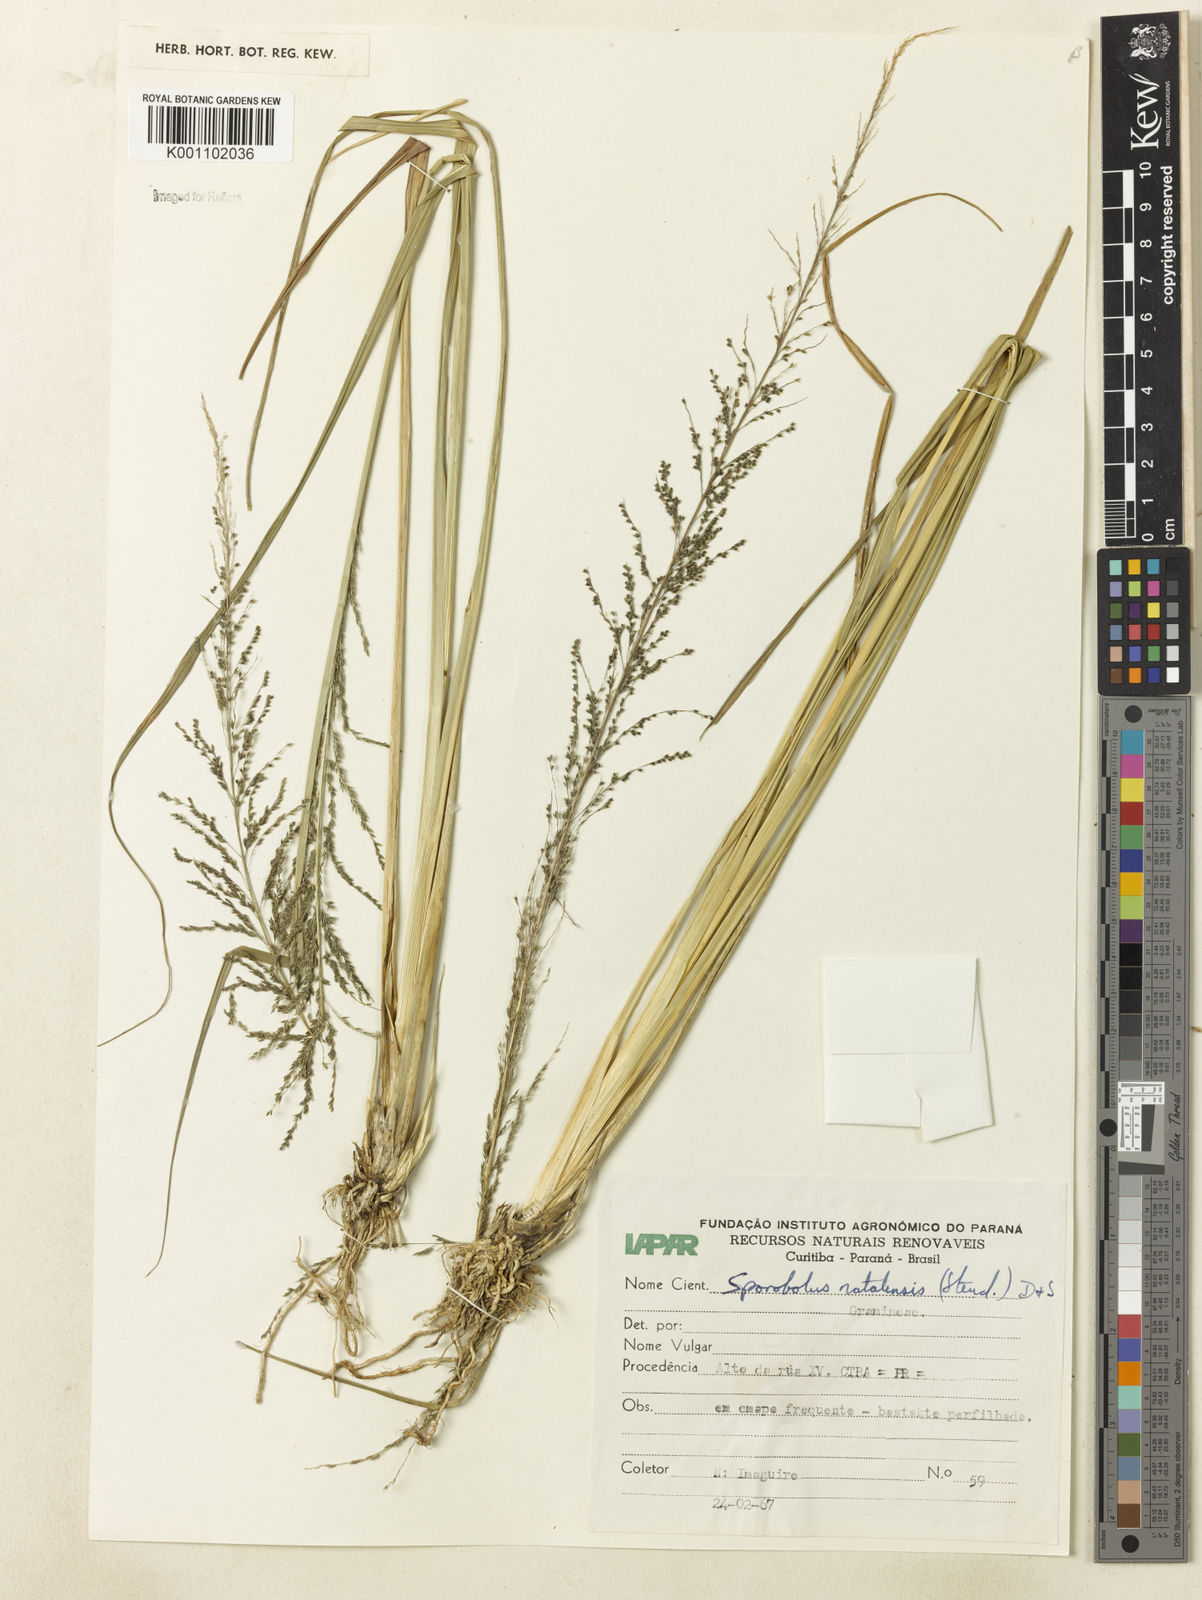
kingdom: Plantae
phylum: Tracheophyta
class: Liliopsida
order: Poales
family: Poaceae
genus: Sporobolus
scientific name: Sporobolus indicus
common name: Smut grass
